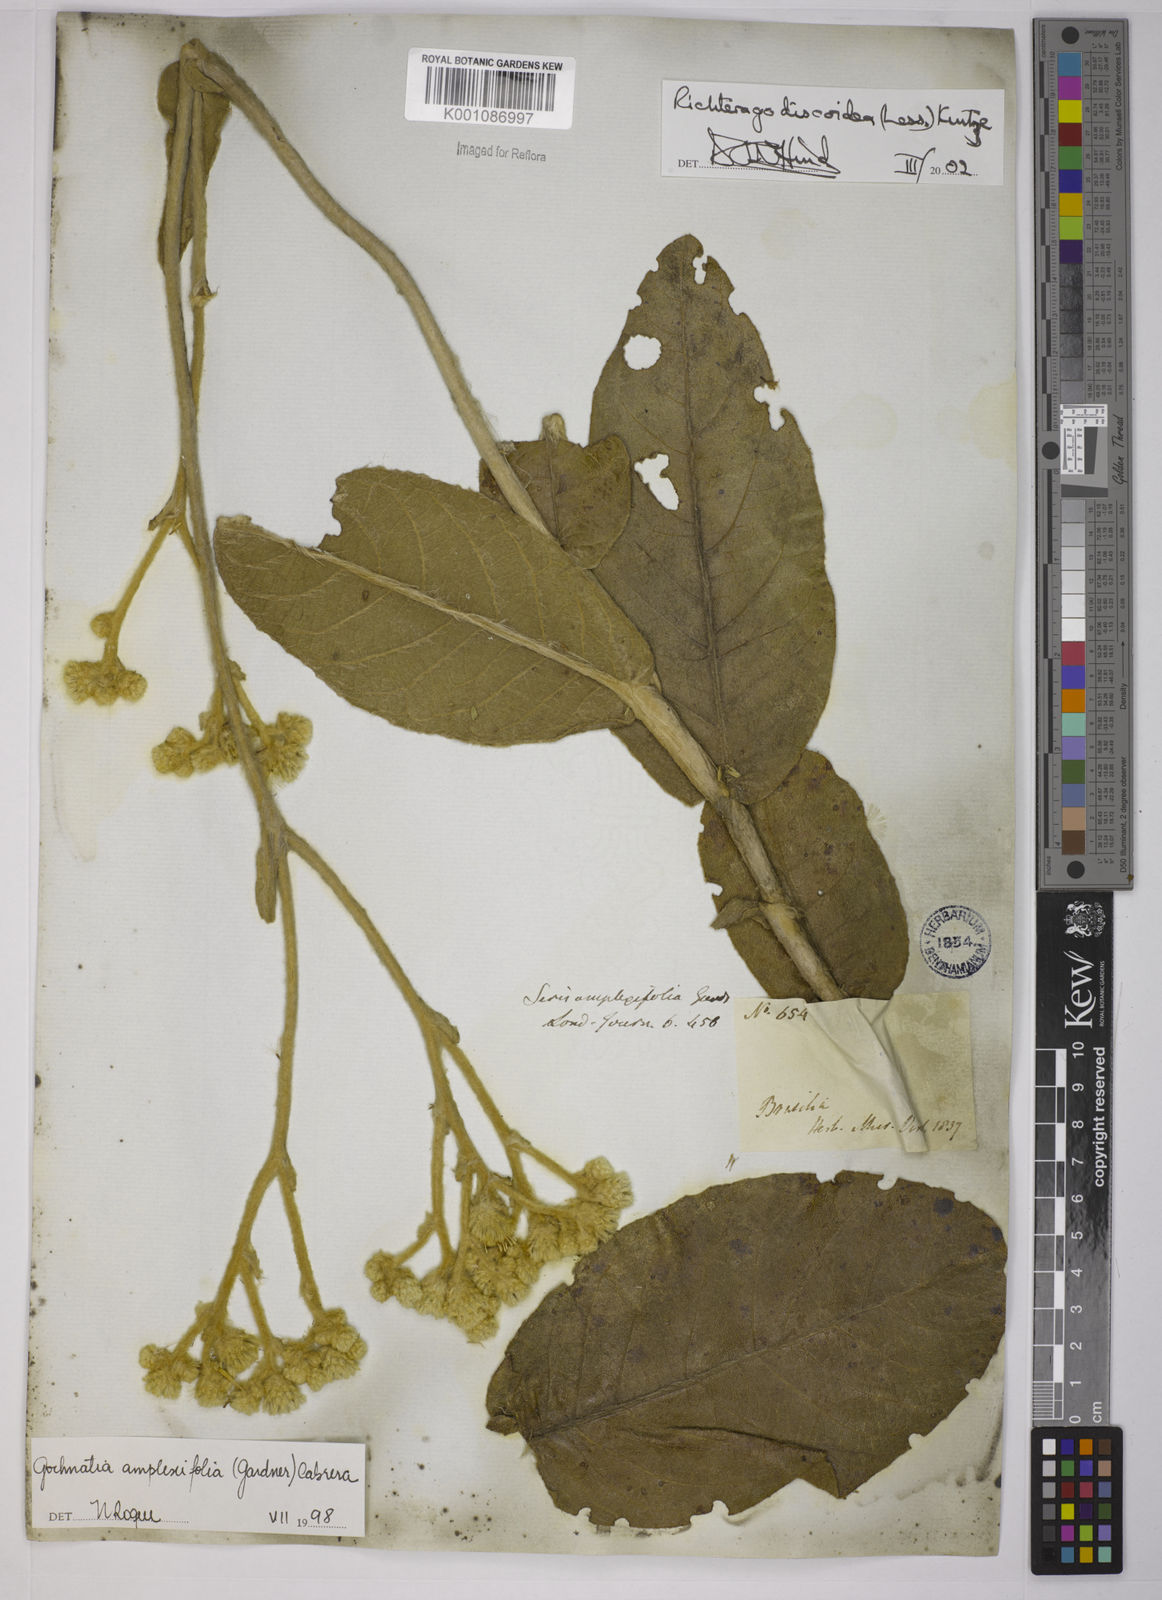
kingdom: Plantae
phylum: Tracheophyta
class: Magnoliopsida
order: Asterales
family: Asteraceae
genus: Richterago
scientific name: Richterago amplexifolia
